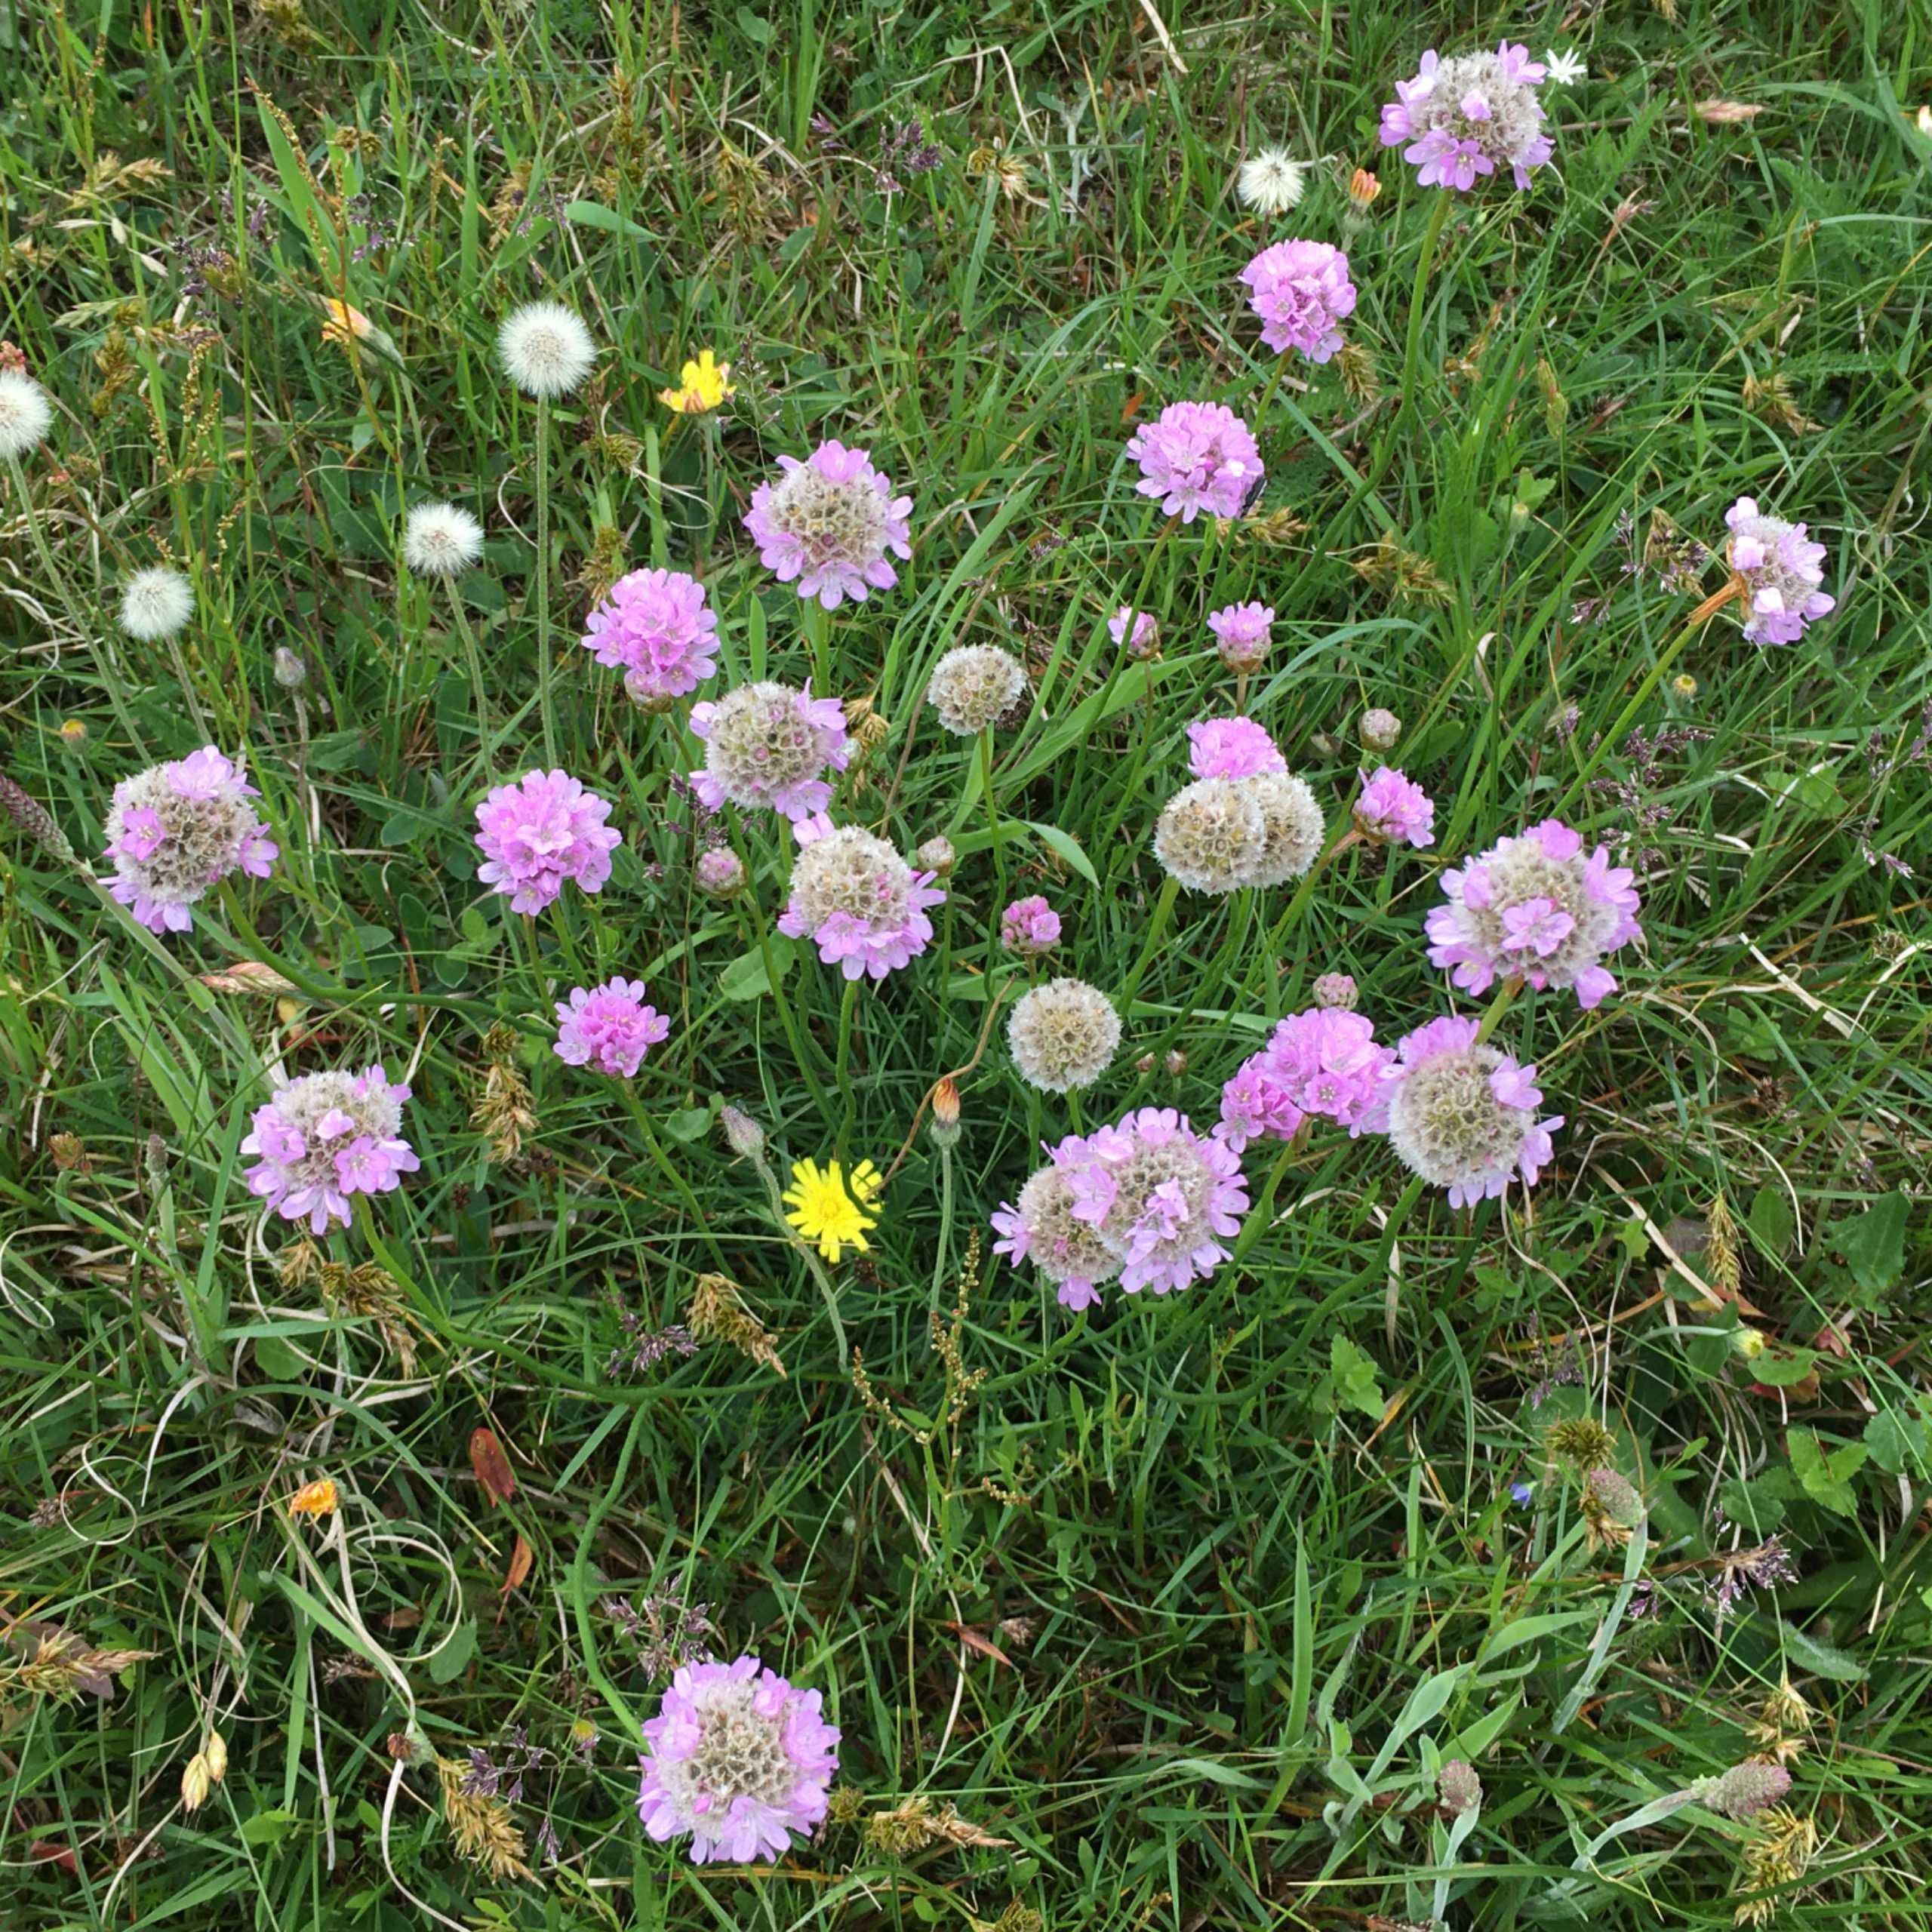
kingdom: Plantae
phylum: Tracheophyta
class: Magnoliopsida
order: Caryophyllales
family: Plumbaginaceae
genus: Armeria
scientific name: Armeria maritima
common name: Engelskgræs
